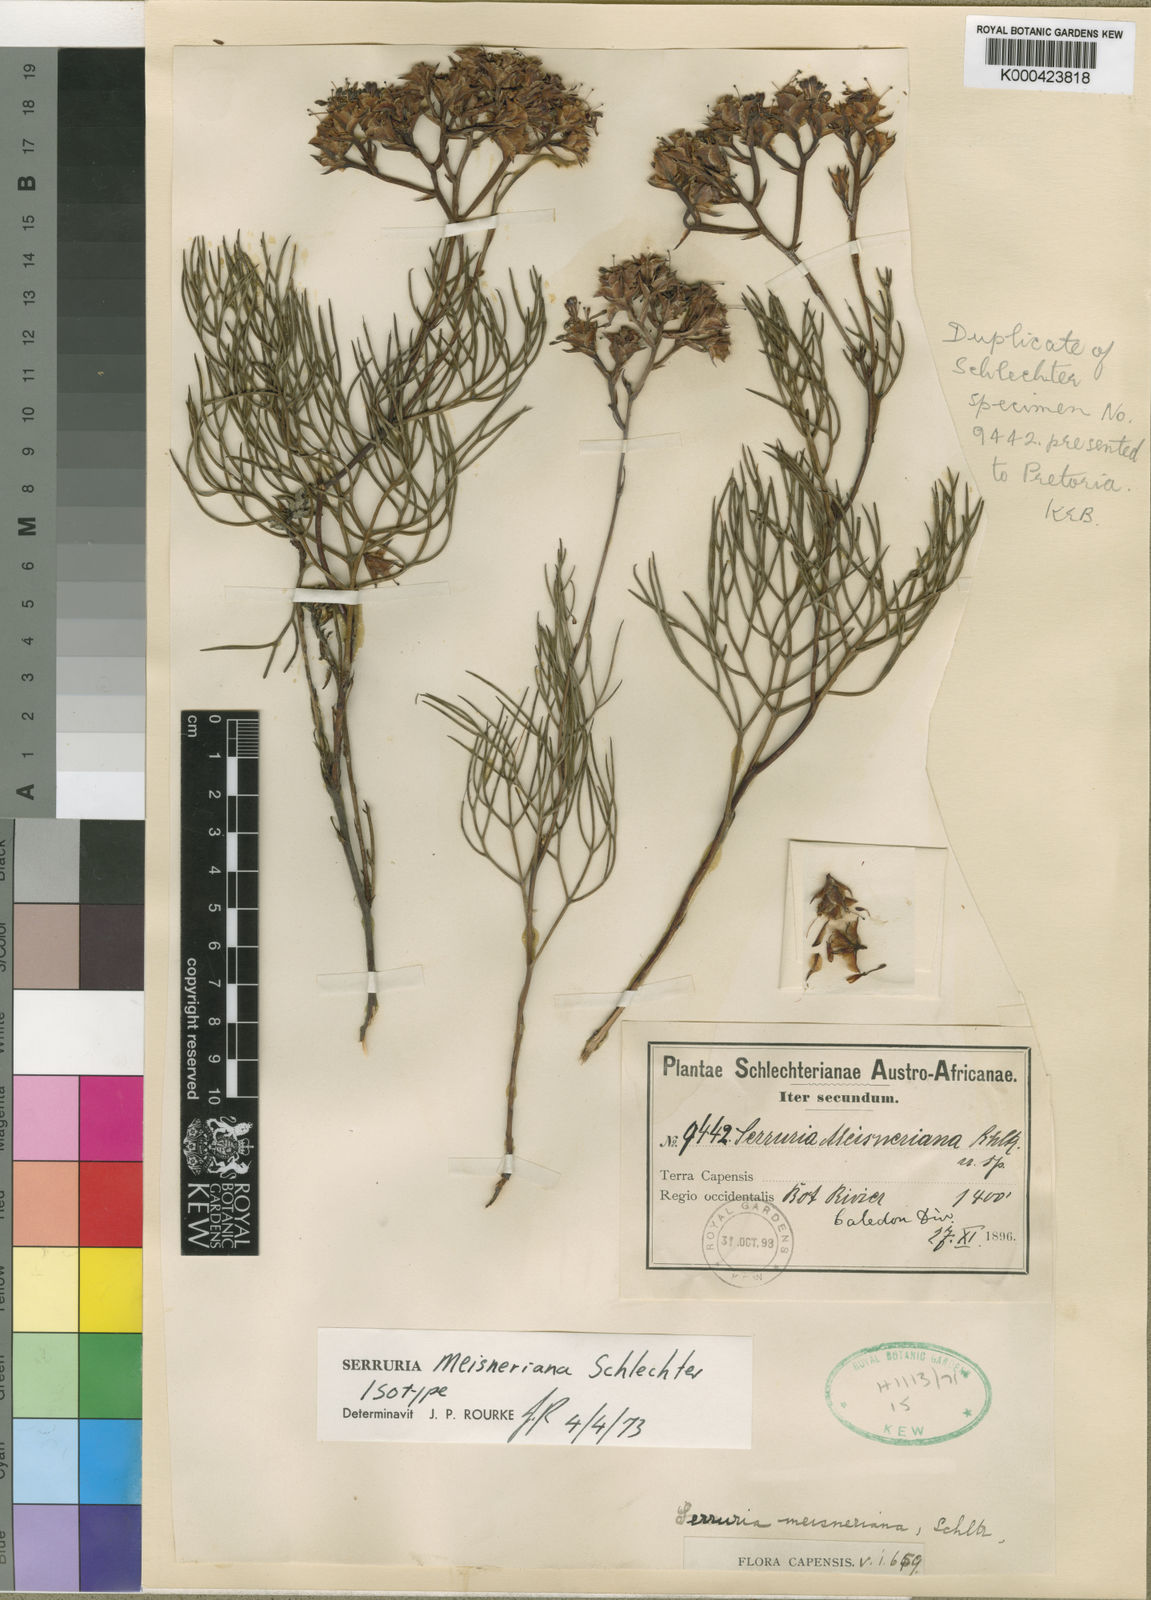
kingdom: Plantae
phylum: Tracheophyta
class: Magnoliopsida
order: Proteales
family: Proteaceae
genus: Serruria
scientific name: Serruria meisneriana
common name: Dainty spiderhead
